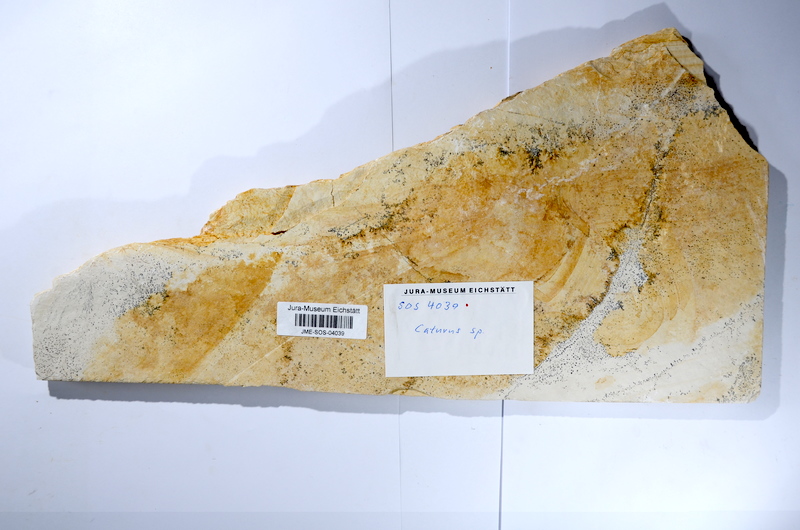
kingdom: Animalia
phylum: Chordata
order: Amiiformes
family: Caturidae
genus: Caturus
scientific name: Caturus
